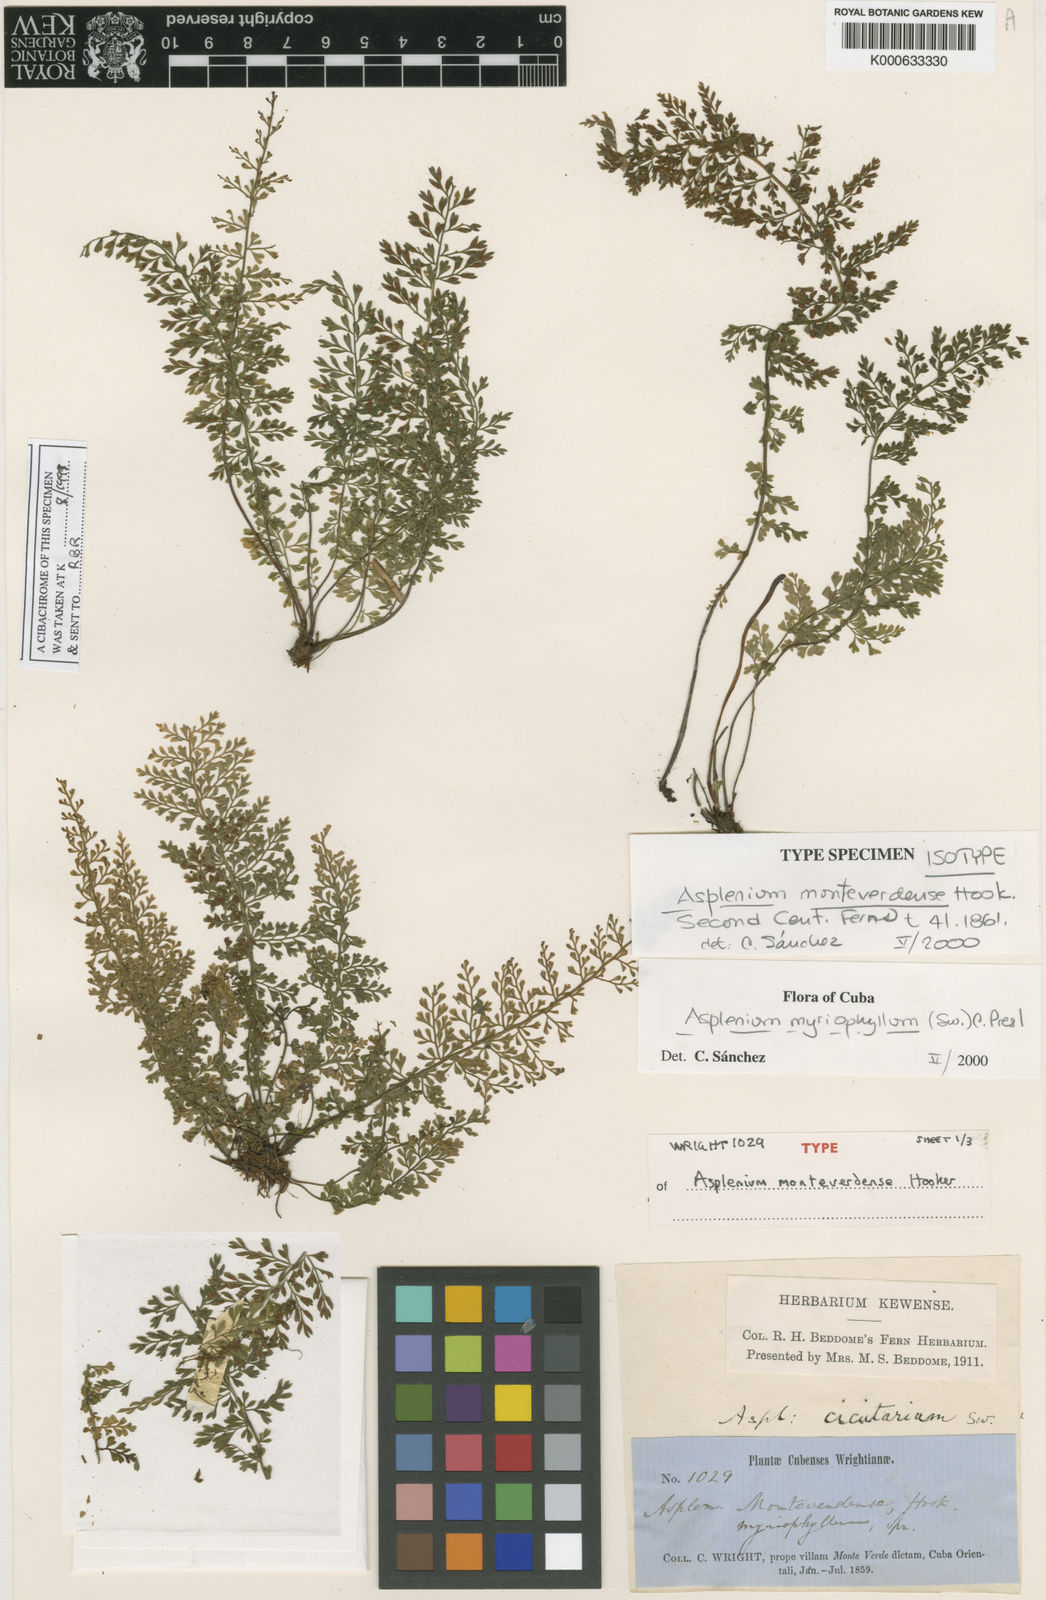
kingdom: Plantae
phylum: Tracheophyta
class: Polypodiopsida
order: Polypodiales
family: Aspleniaceae
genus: Asplenium
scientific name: Asplenium myriophyllum
